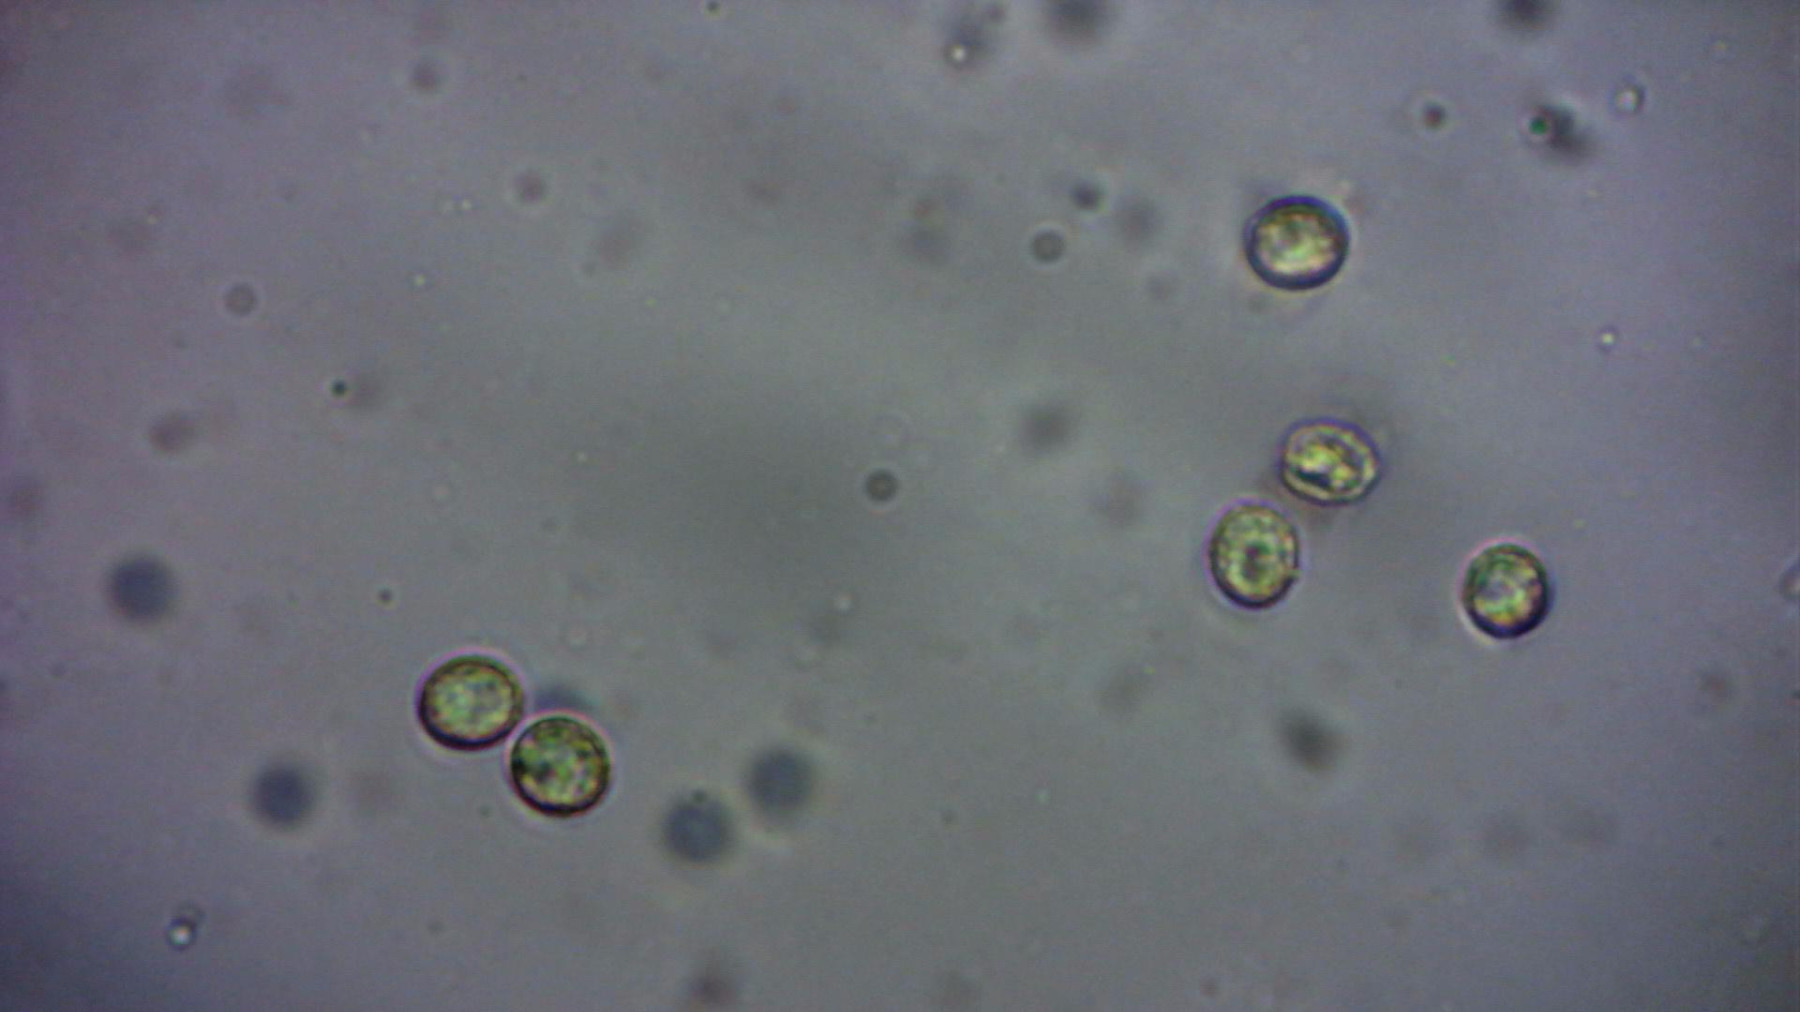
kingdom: Fungi
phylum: Basidiomycota
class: Agaricomycetes
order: Agaricales
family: Crepidotaceae
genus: Crepidotus
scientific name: Crepidotus cesatii
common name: almindelig muslingesvamp
